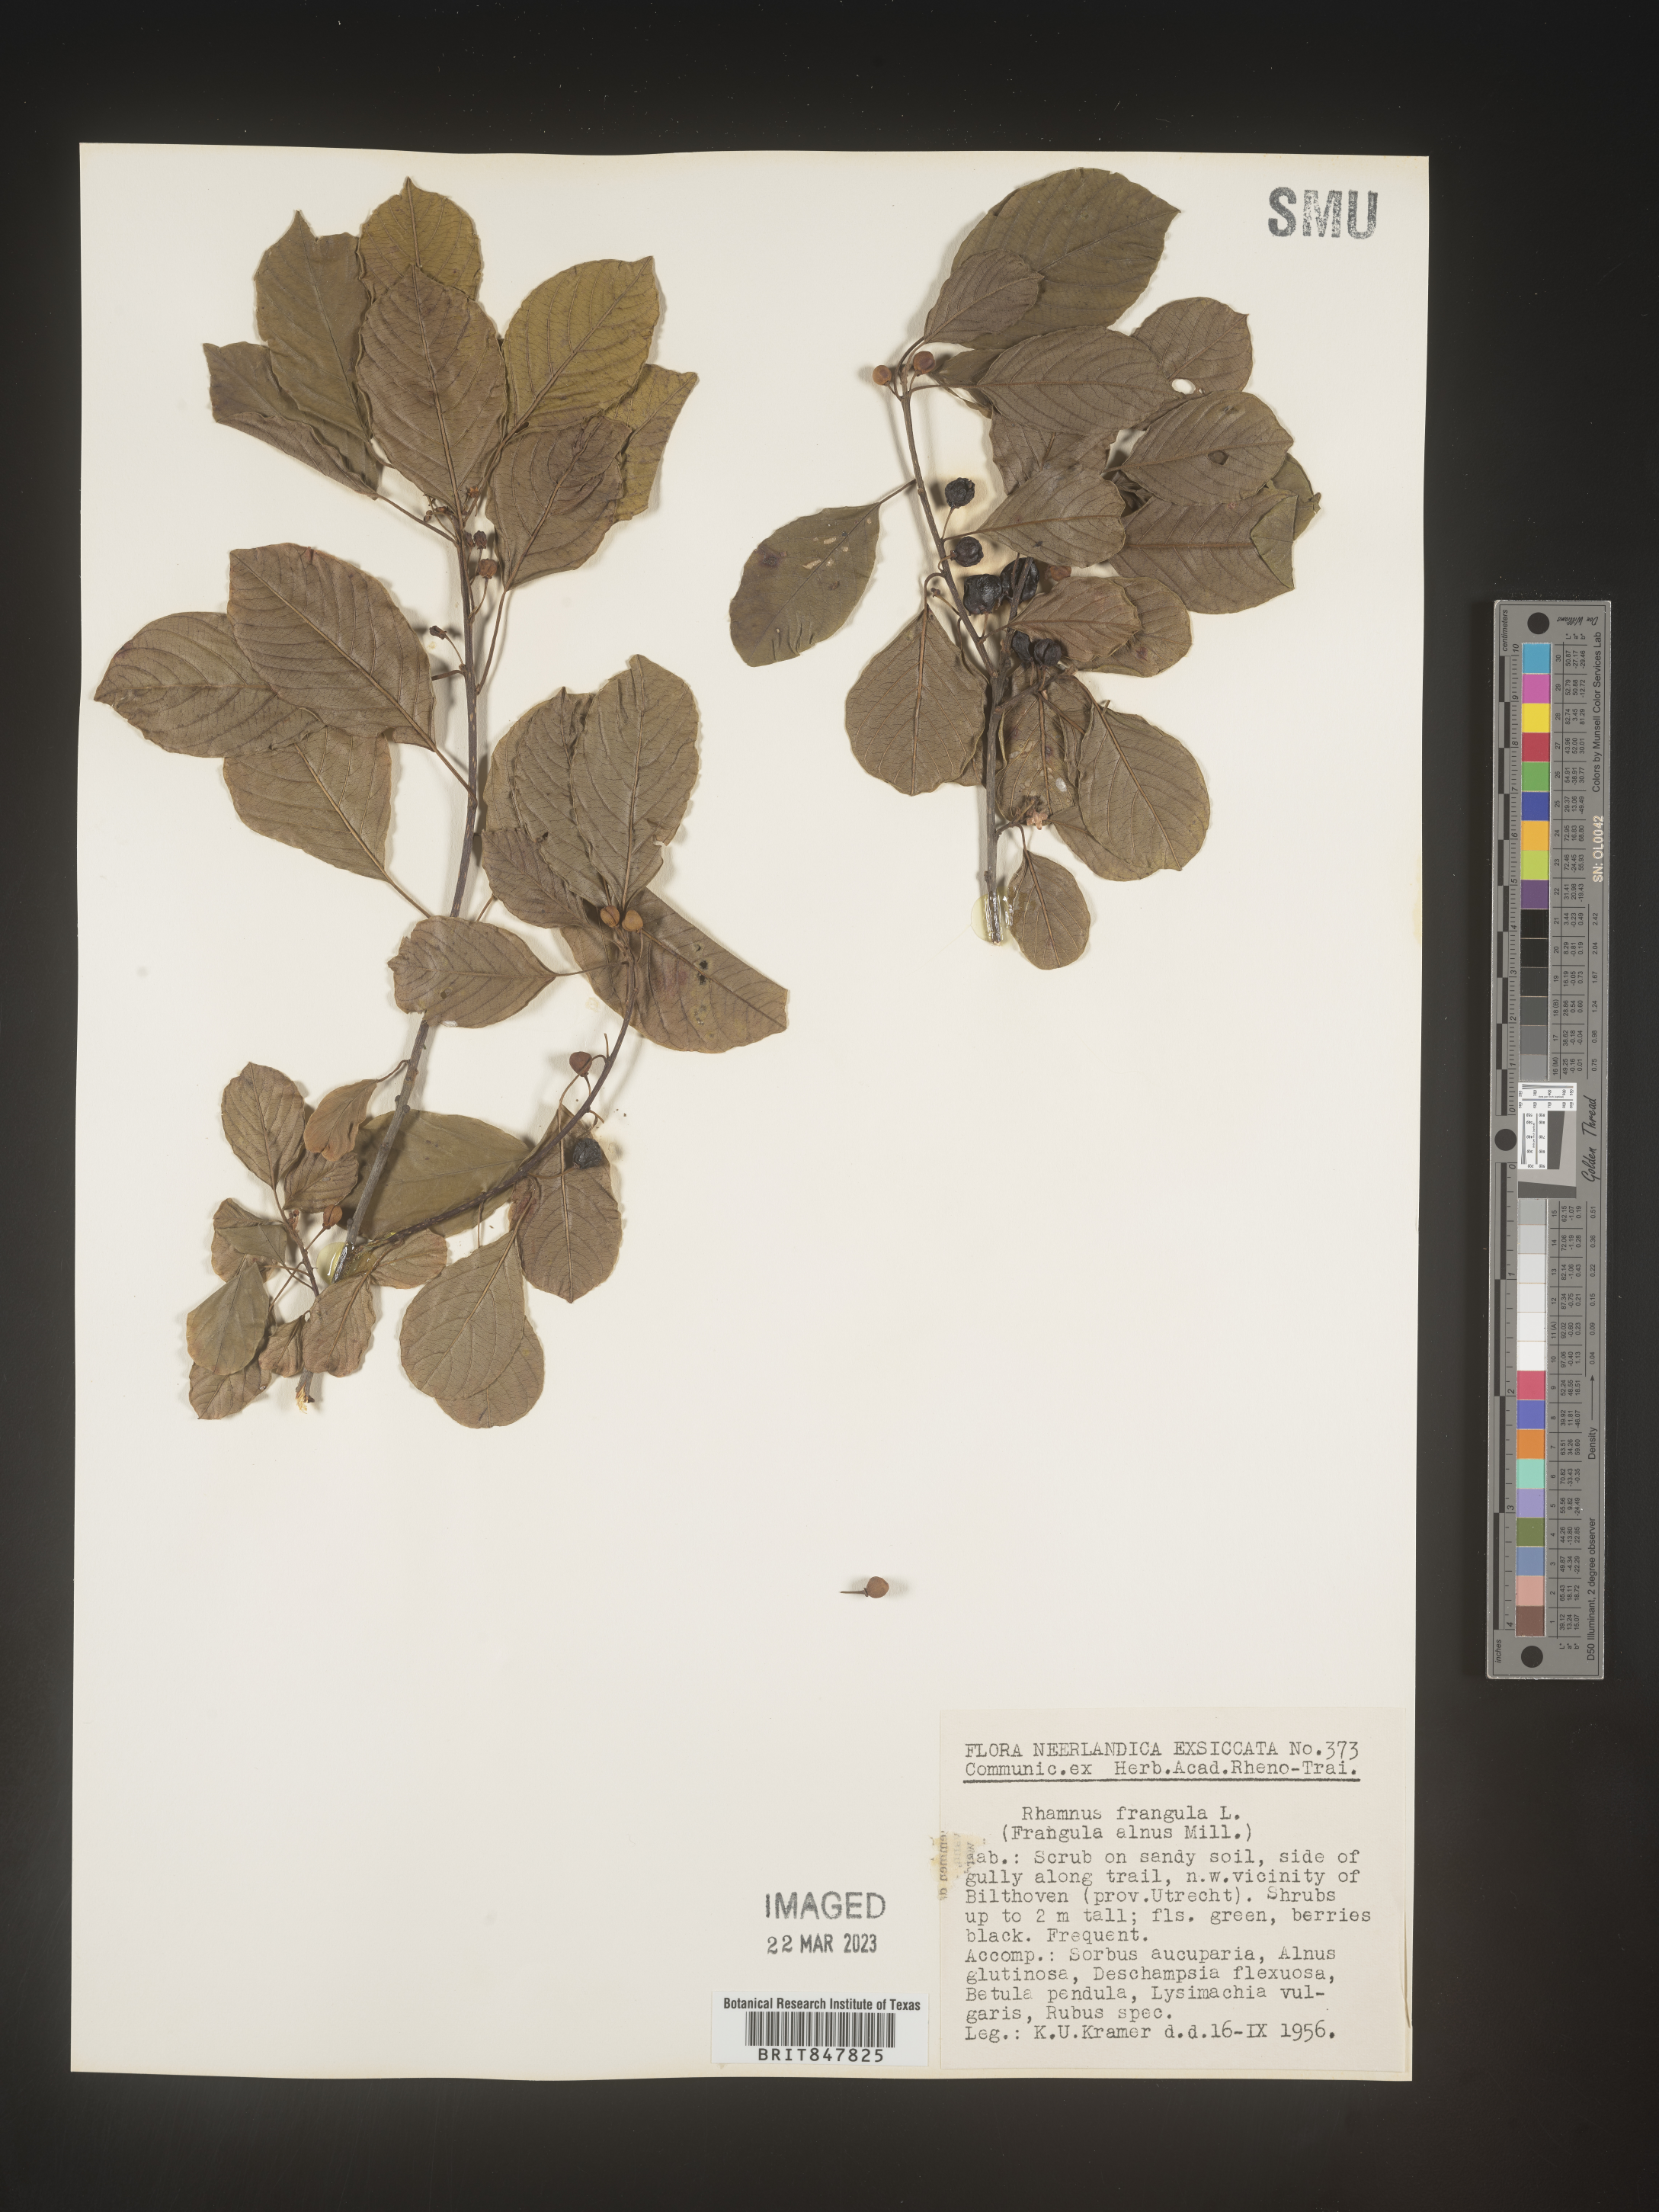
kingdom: Plantae
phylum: Tracheophyta
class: Magnoliopsida
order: Rosales
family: Rhamnaceae
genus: Rhamnus
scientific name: Rhamnus
